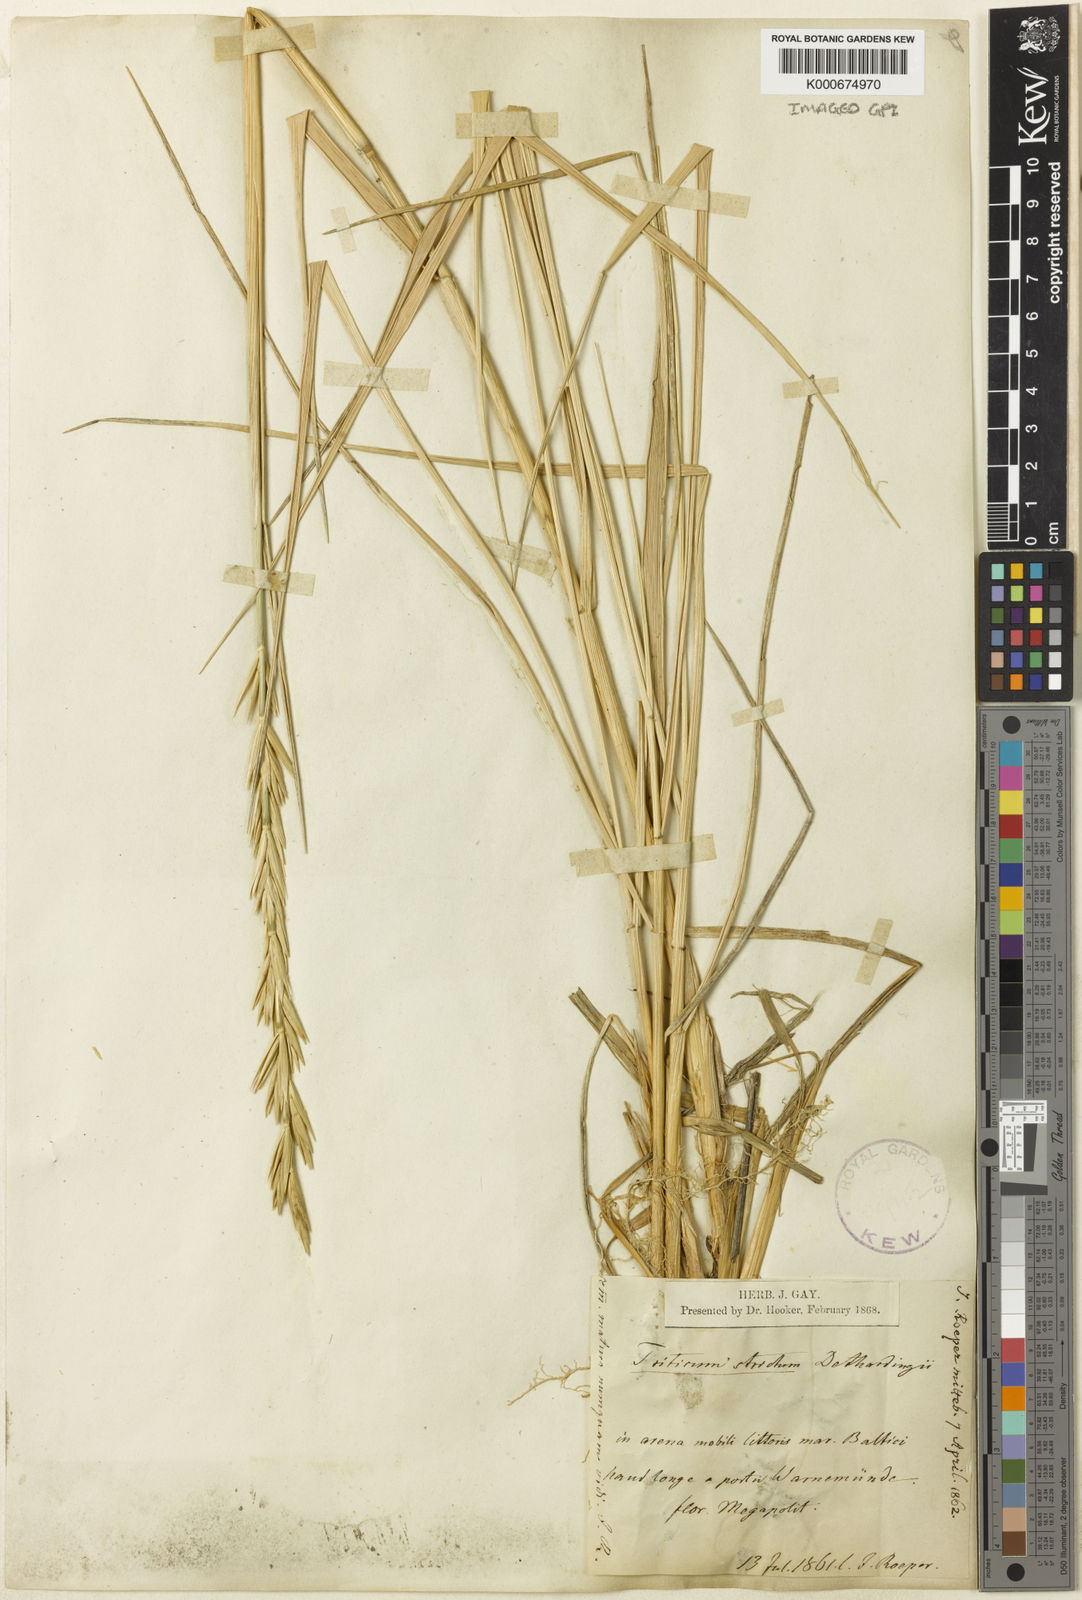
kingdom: Plantae
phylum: Tracheophyta
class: Liliopsida
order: Poales
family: Poaceae
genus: Thinopyrum
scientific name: Thinopyrum junceum
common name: Russian wheatgrass
